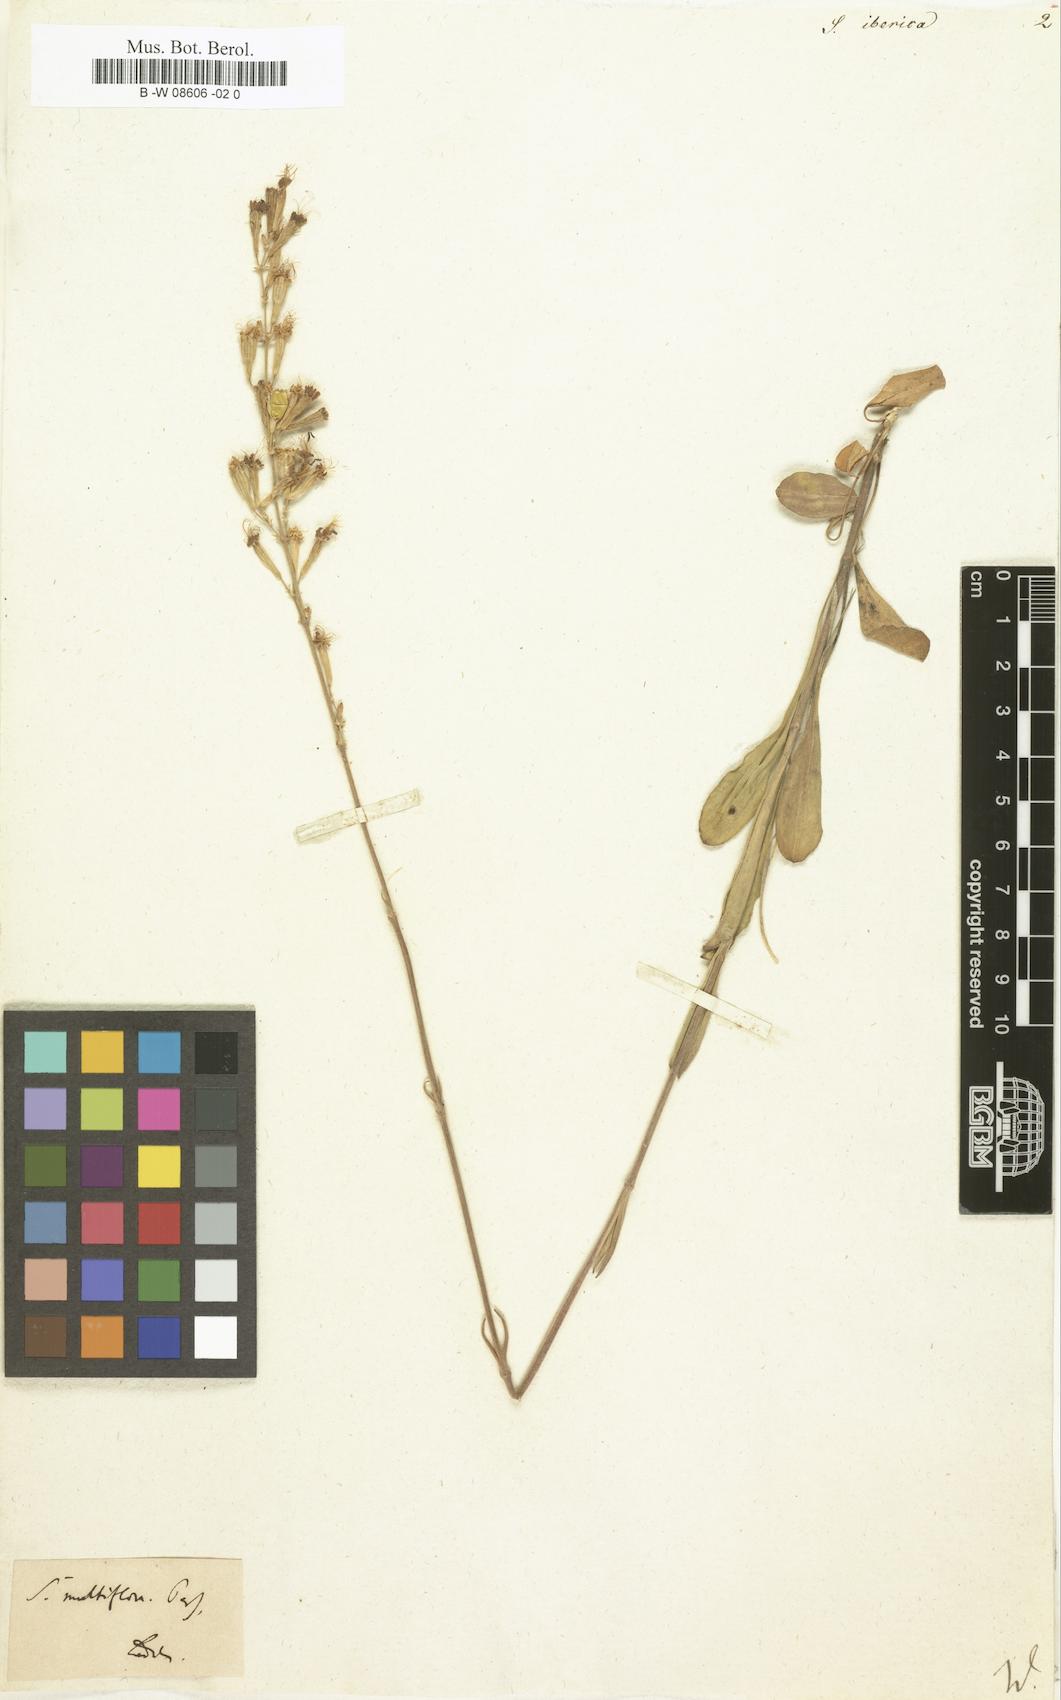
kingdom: Plantae
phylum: Tracheophyta
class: Magnoliopsida
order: Caryophyllales
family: Caryophyllaceae
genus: Silene
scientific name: Silene iberica
